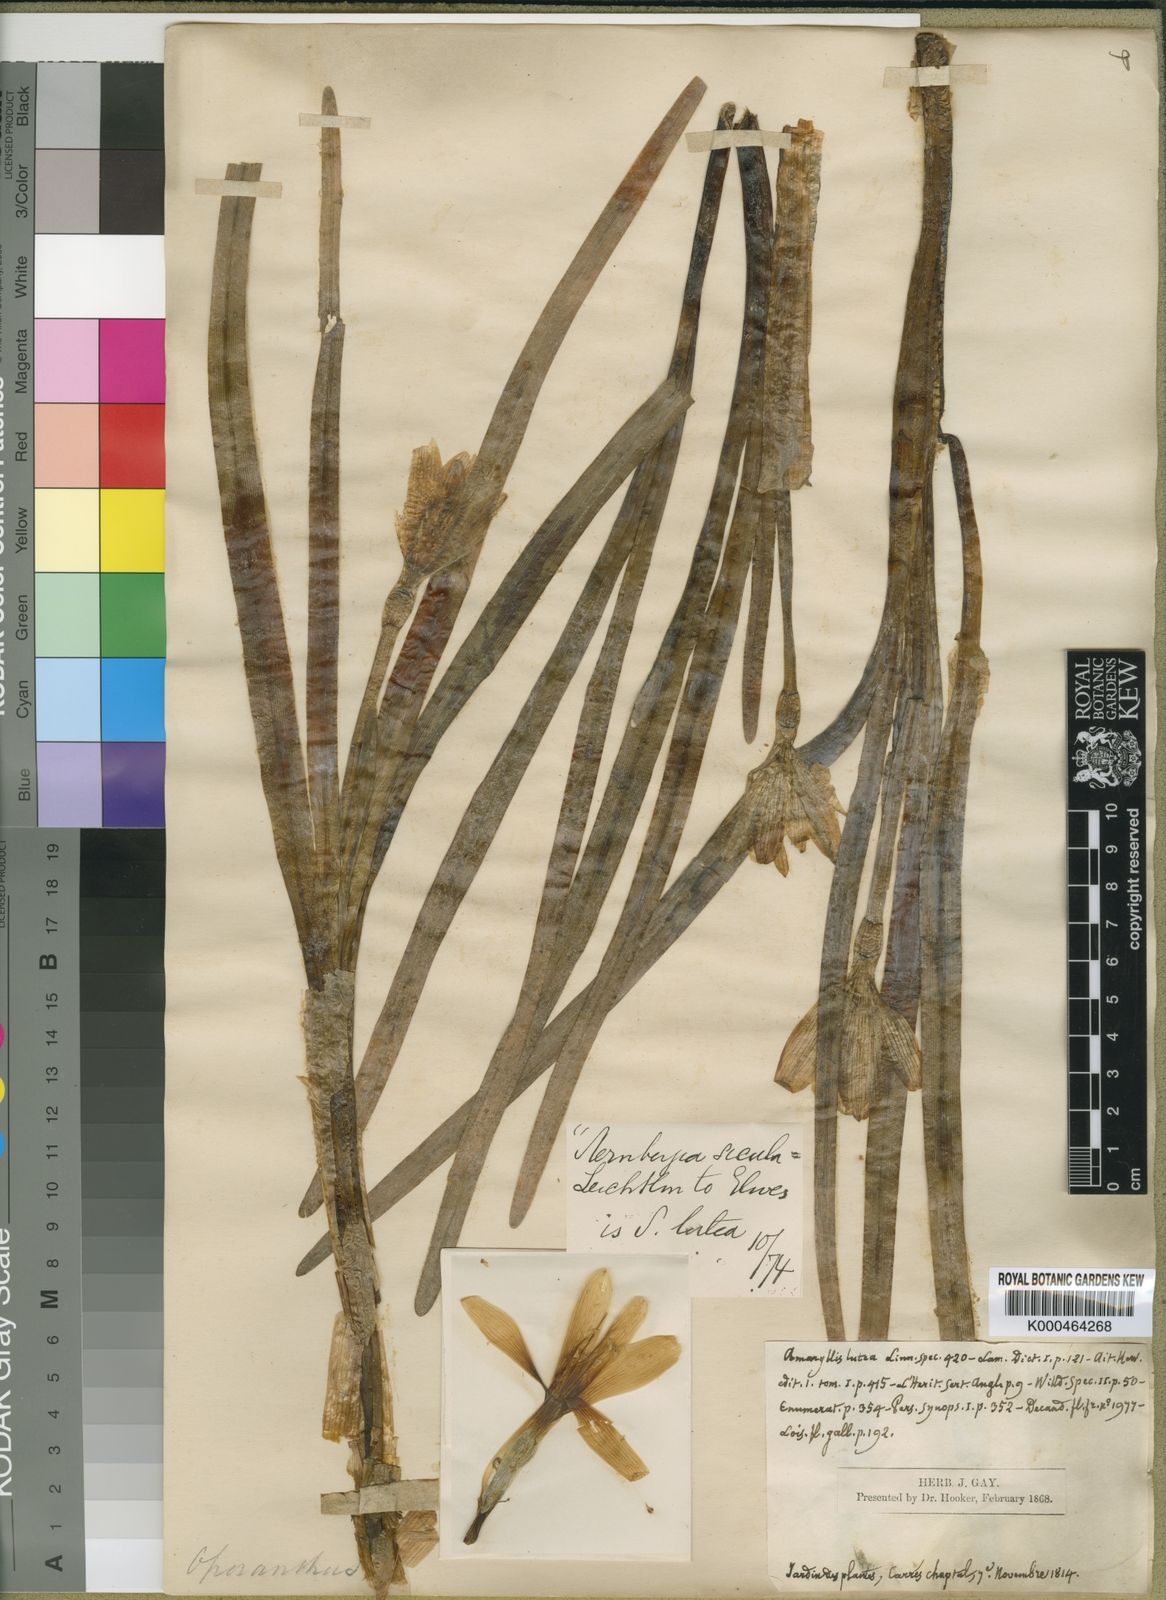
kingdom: Plantae
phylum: Tracheophyta
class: Liliopsida
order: Asparagales
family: Amaryllidaceae
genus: Sternbergia
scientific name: Sternbergia lutea
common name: Winter daffodil
